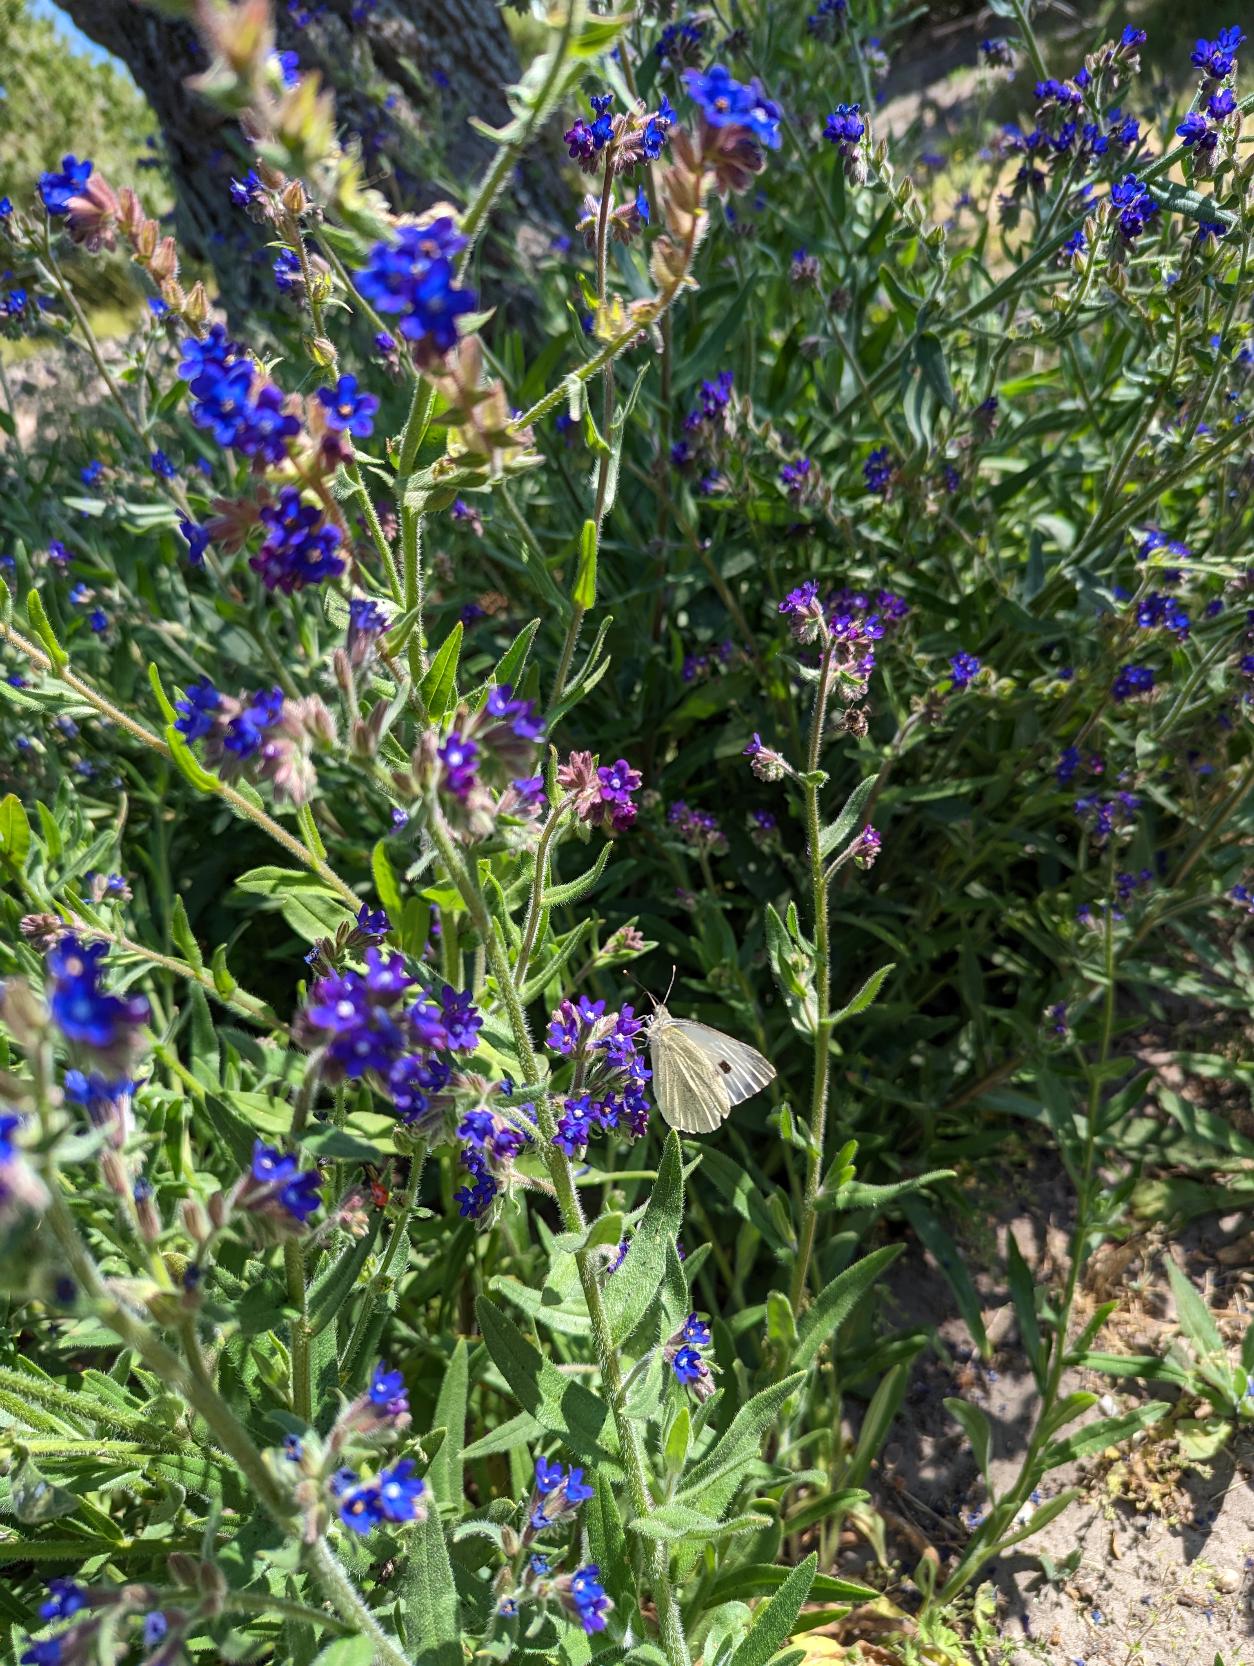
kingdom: Animalia
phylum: Arthropoda
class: Insecta
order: Lepidoptera
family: Pieridae
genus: Pieris
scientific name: Pieris brassicae
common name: Stor kålsommerfugl
